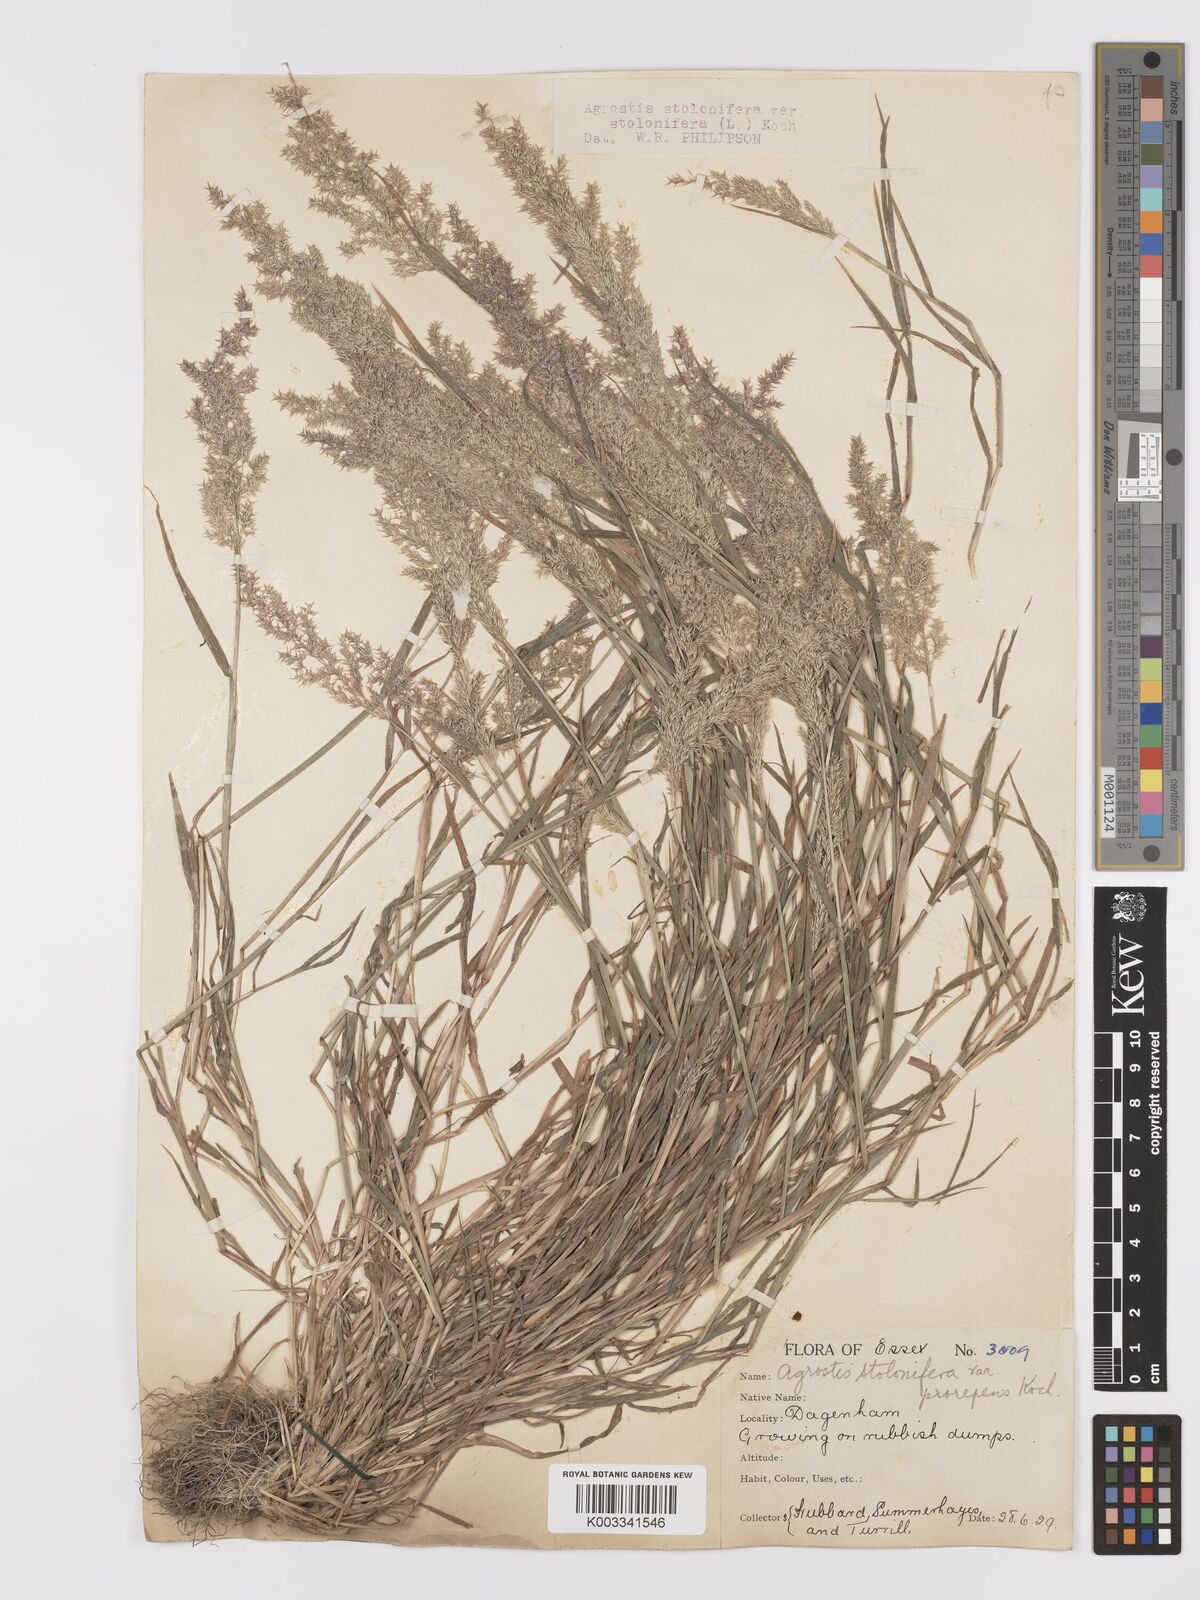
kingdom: Plantae
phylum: Tracheophyta
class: Liliopsida
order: Poales
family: Poaceae
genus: Agrostis
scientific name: Agrostis stolonifera
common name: Creeping bentgrass
